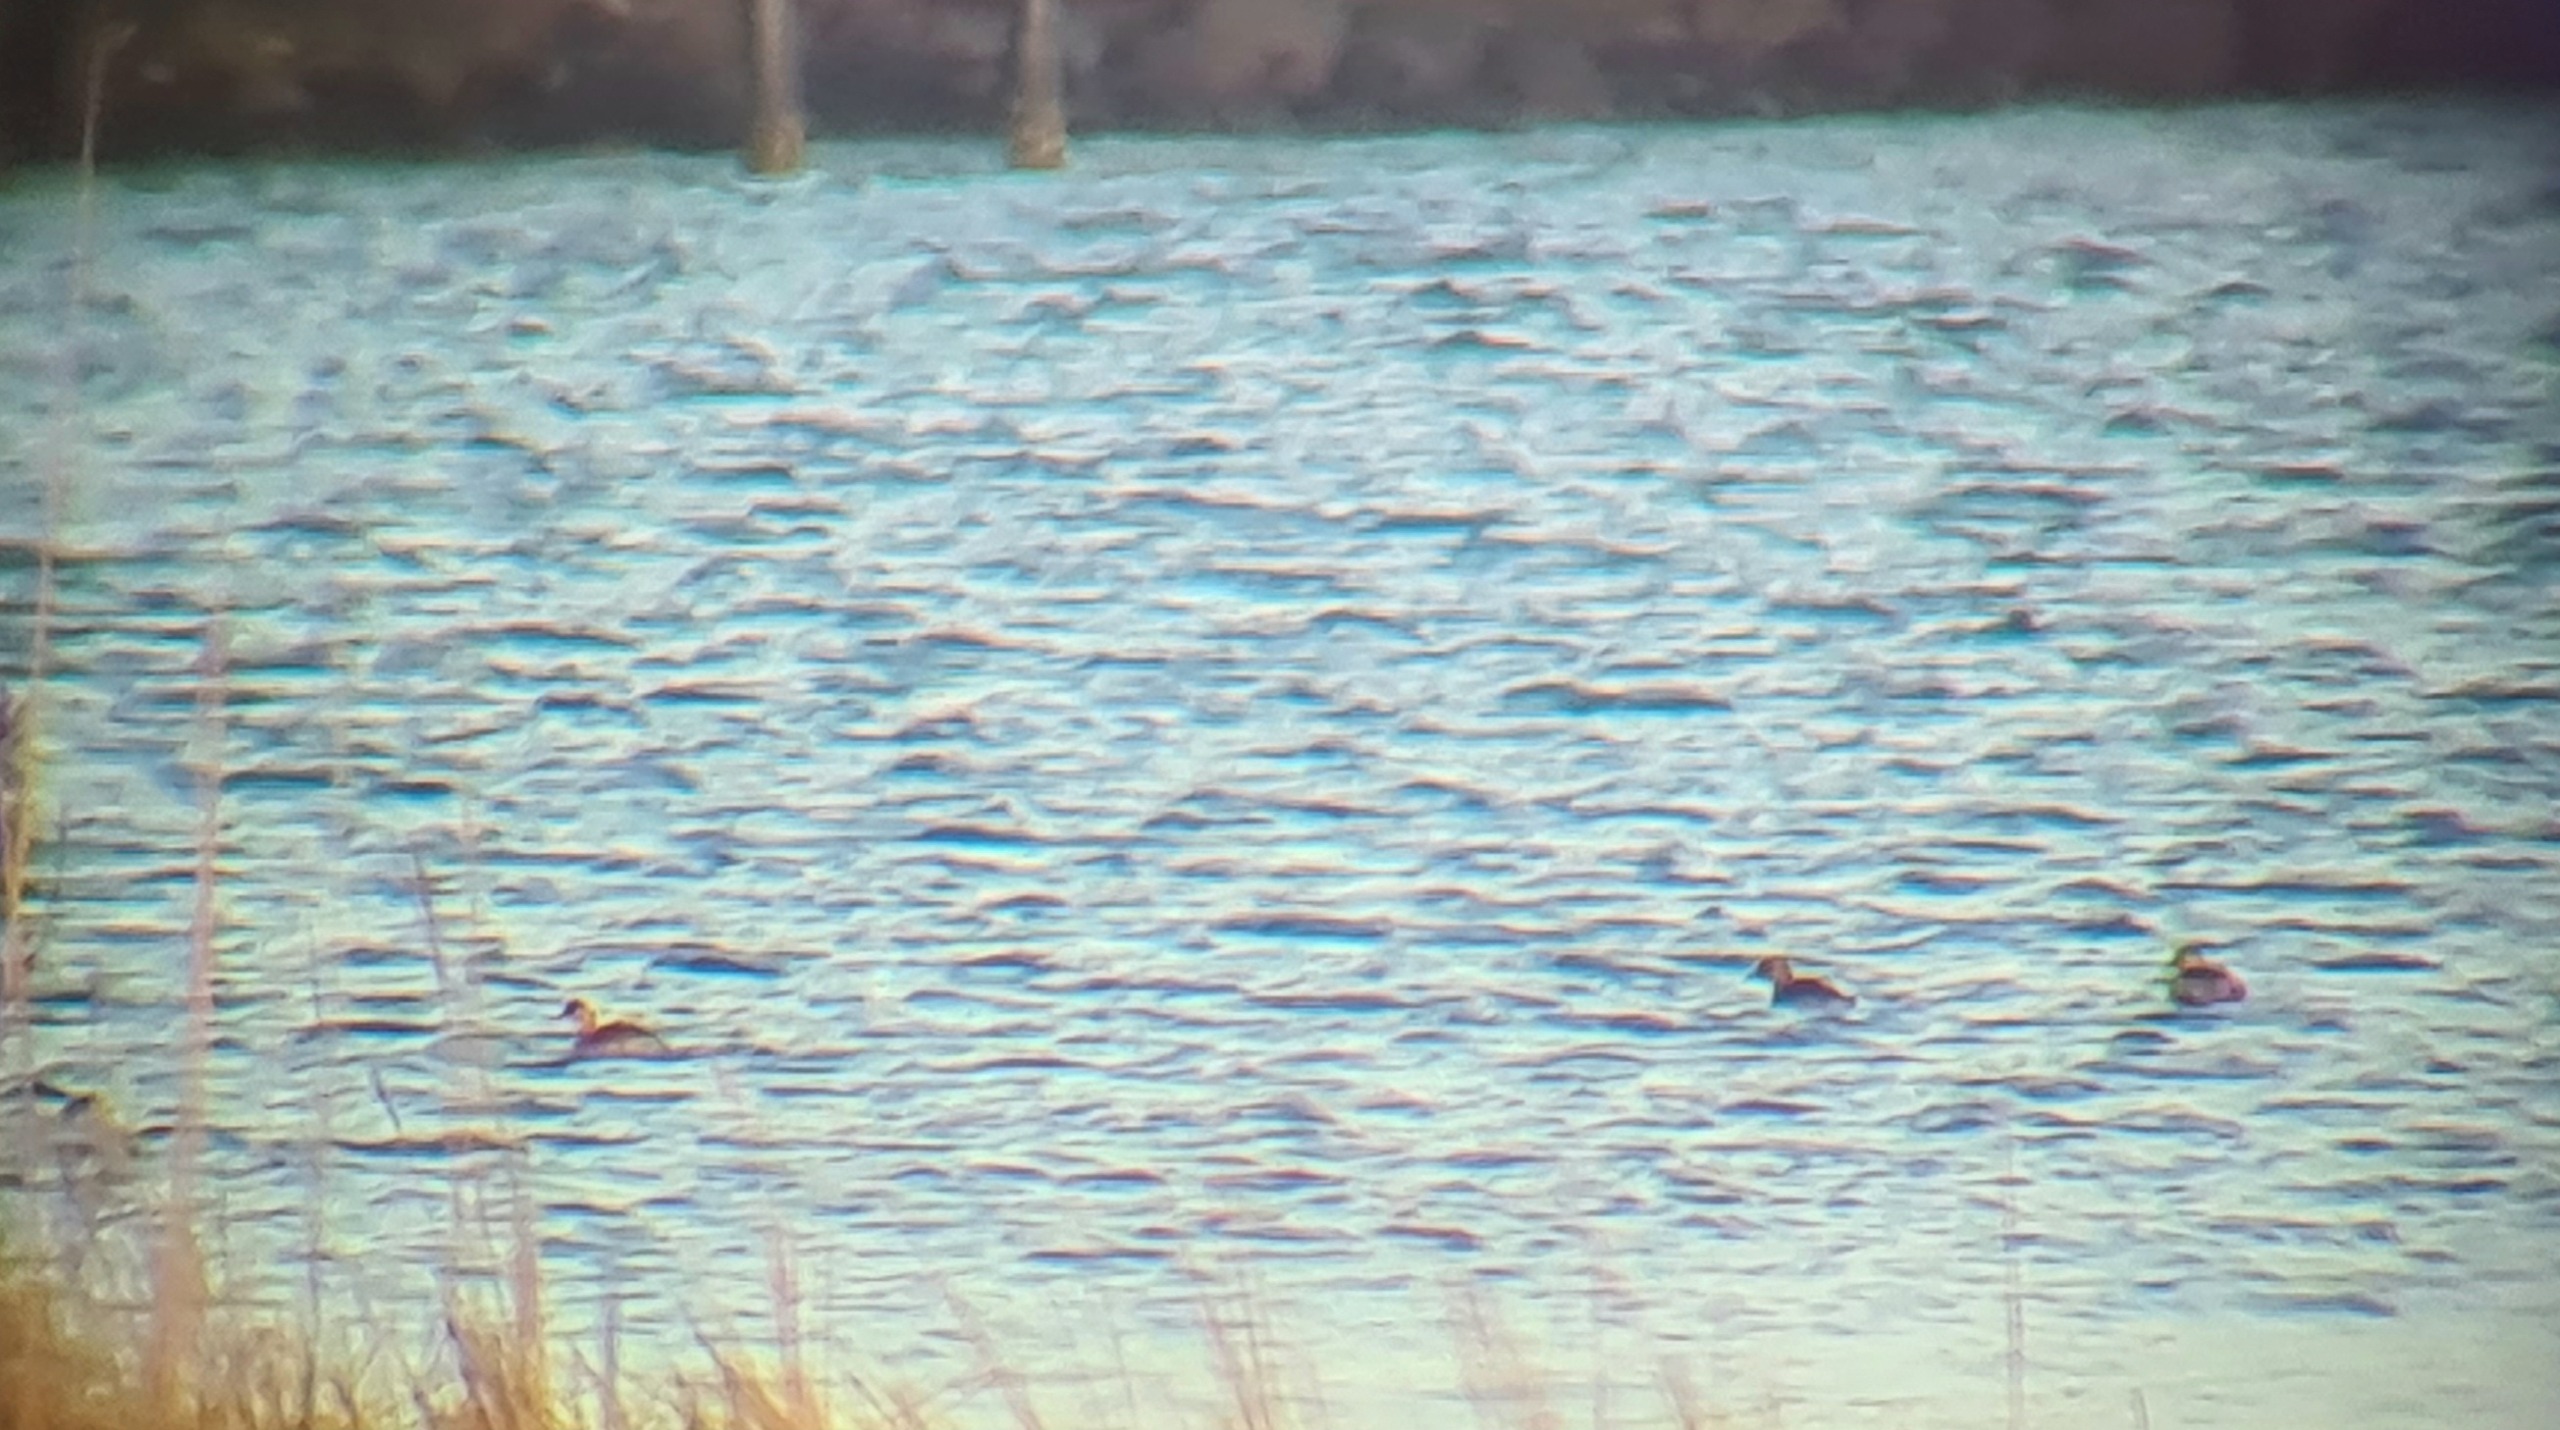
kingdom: Animalia
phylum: Chordata
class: Aves
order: Podicipediformes
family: Podicipedidae
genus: Tachybaptus
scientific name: Tachybaptus ruficollis
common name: Lille lappedykker
